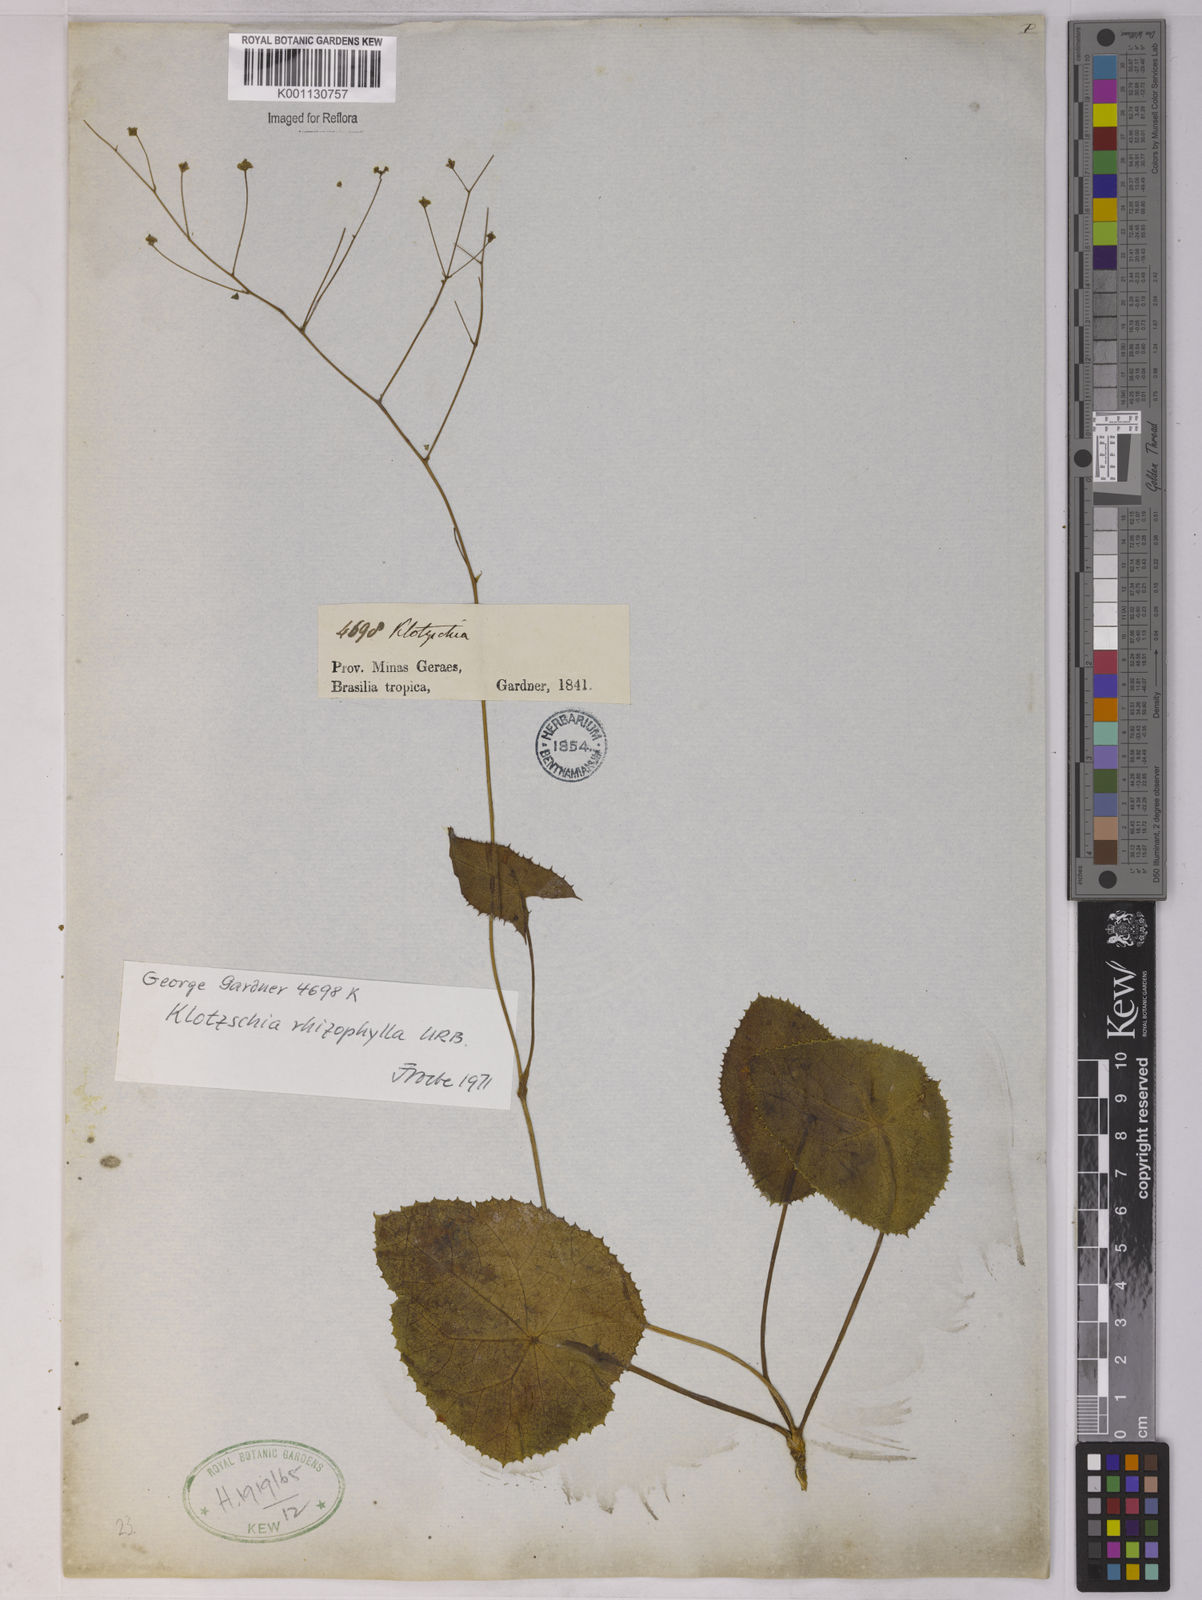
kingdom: Plantae
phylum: Tracheophyta
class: Magnoliopsida
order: Apiales
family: Apiaceae
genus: Klotzschia
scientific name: Klotzschia rhizophylla
